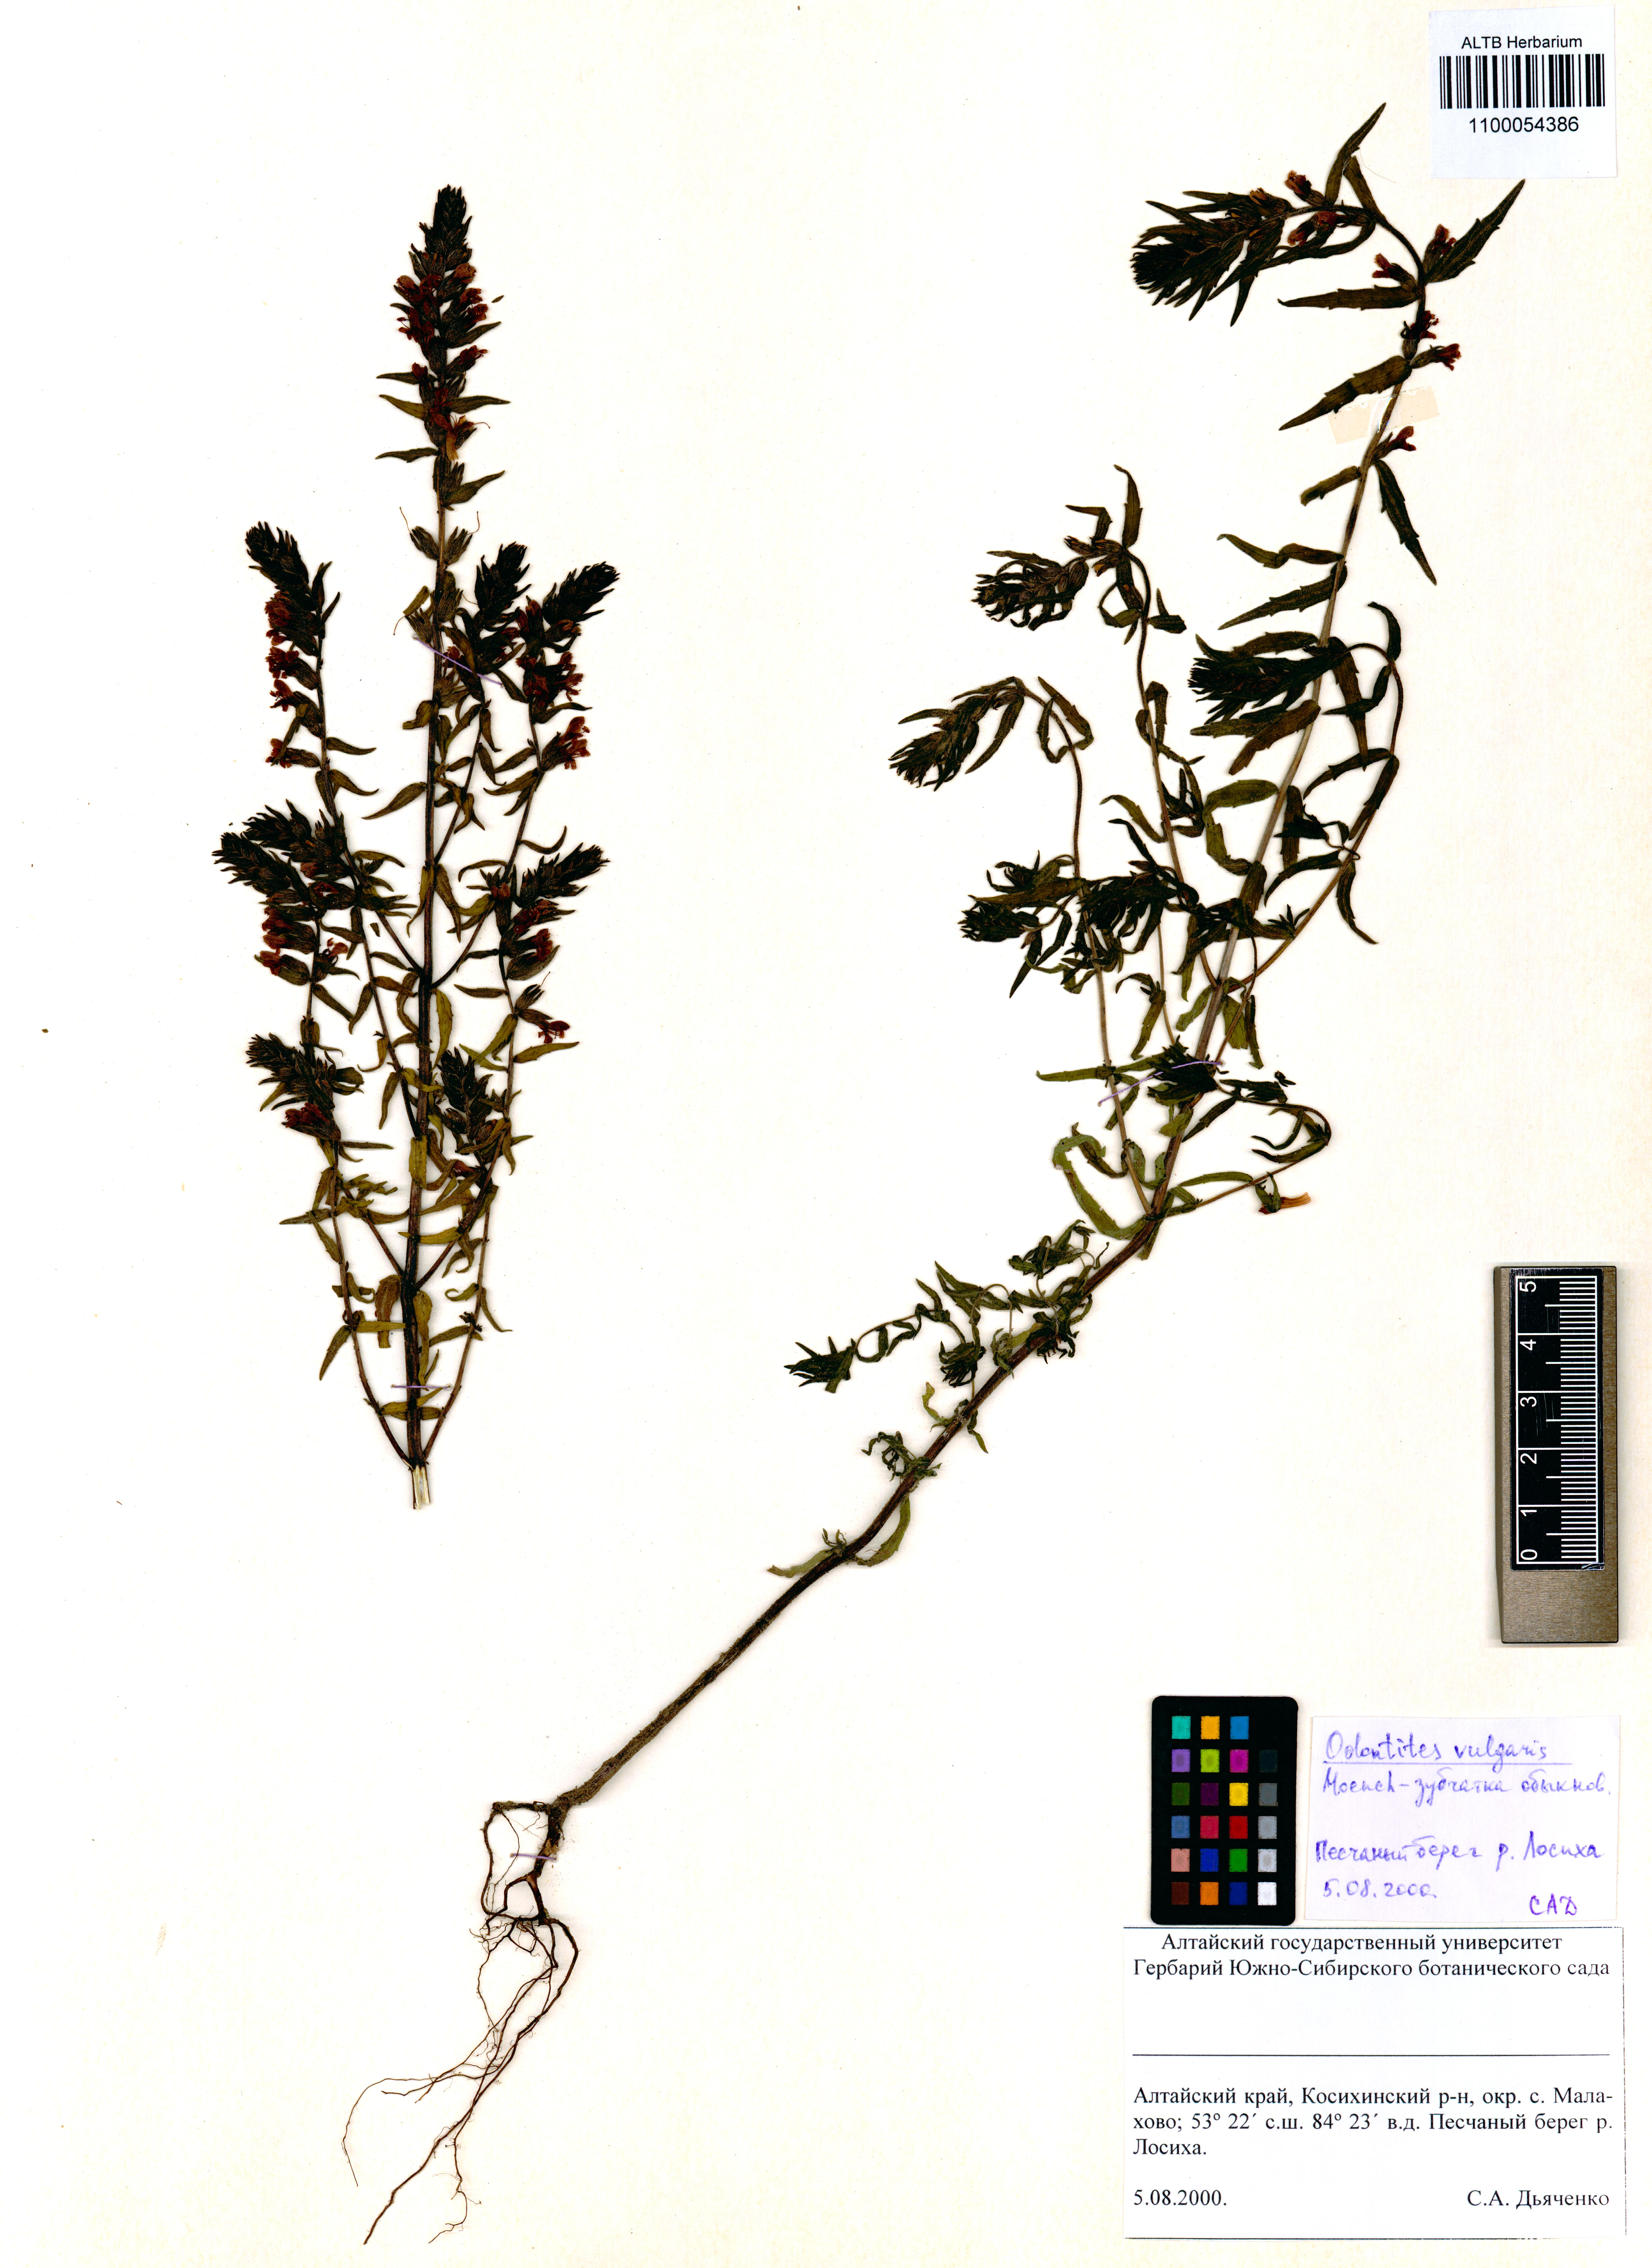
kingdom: Plantae
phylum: Tracheophyta
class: Magnoliopsida
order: Lamiales
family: Orobanchaceae
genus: Odontites
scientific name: Odontites vulgaris
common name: Broomrape
